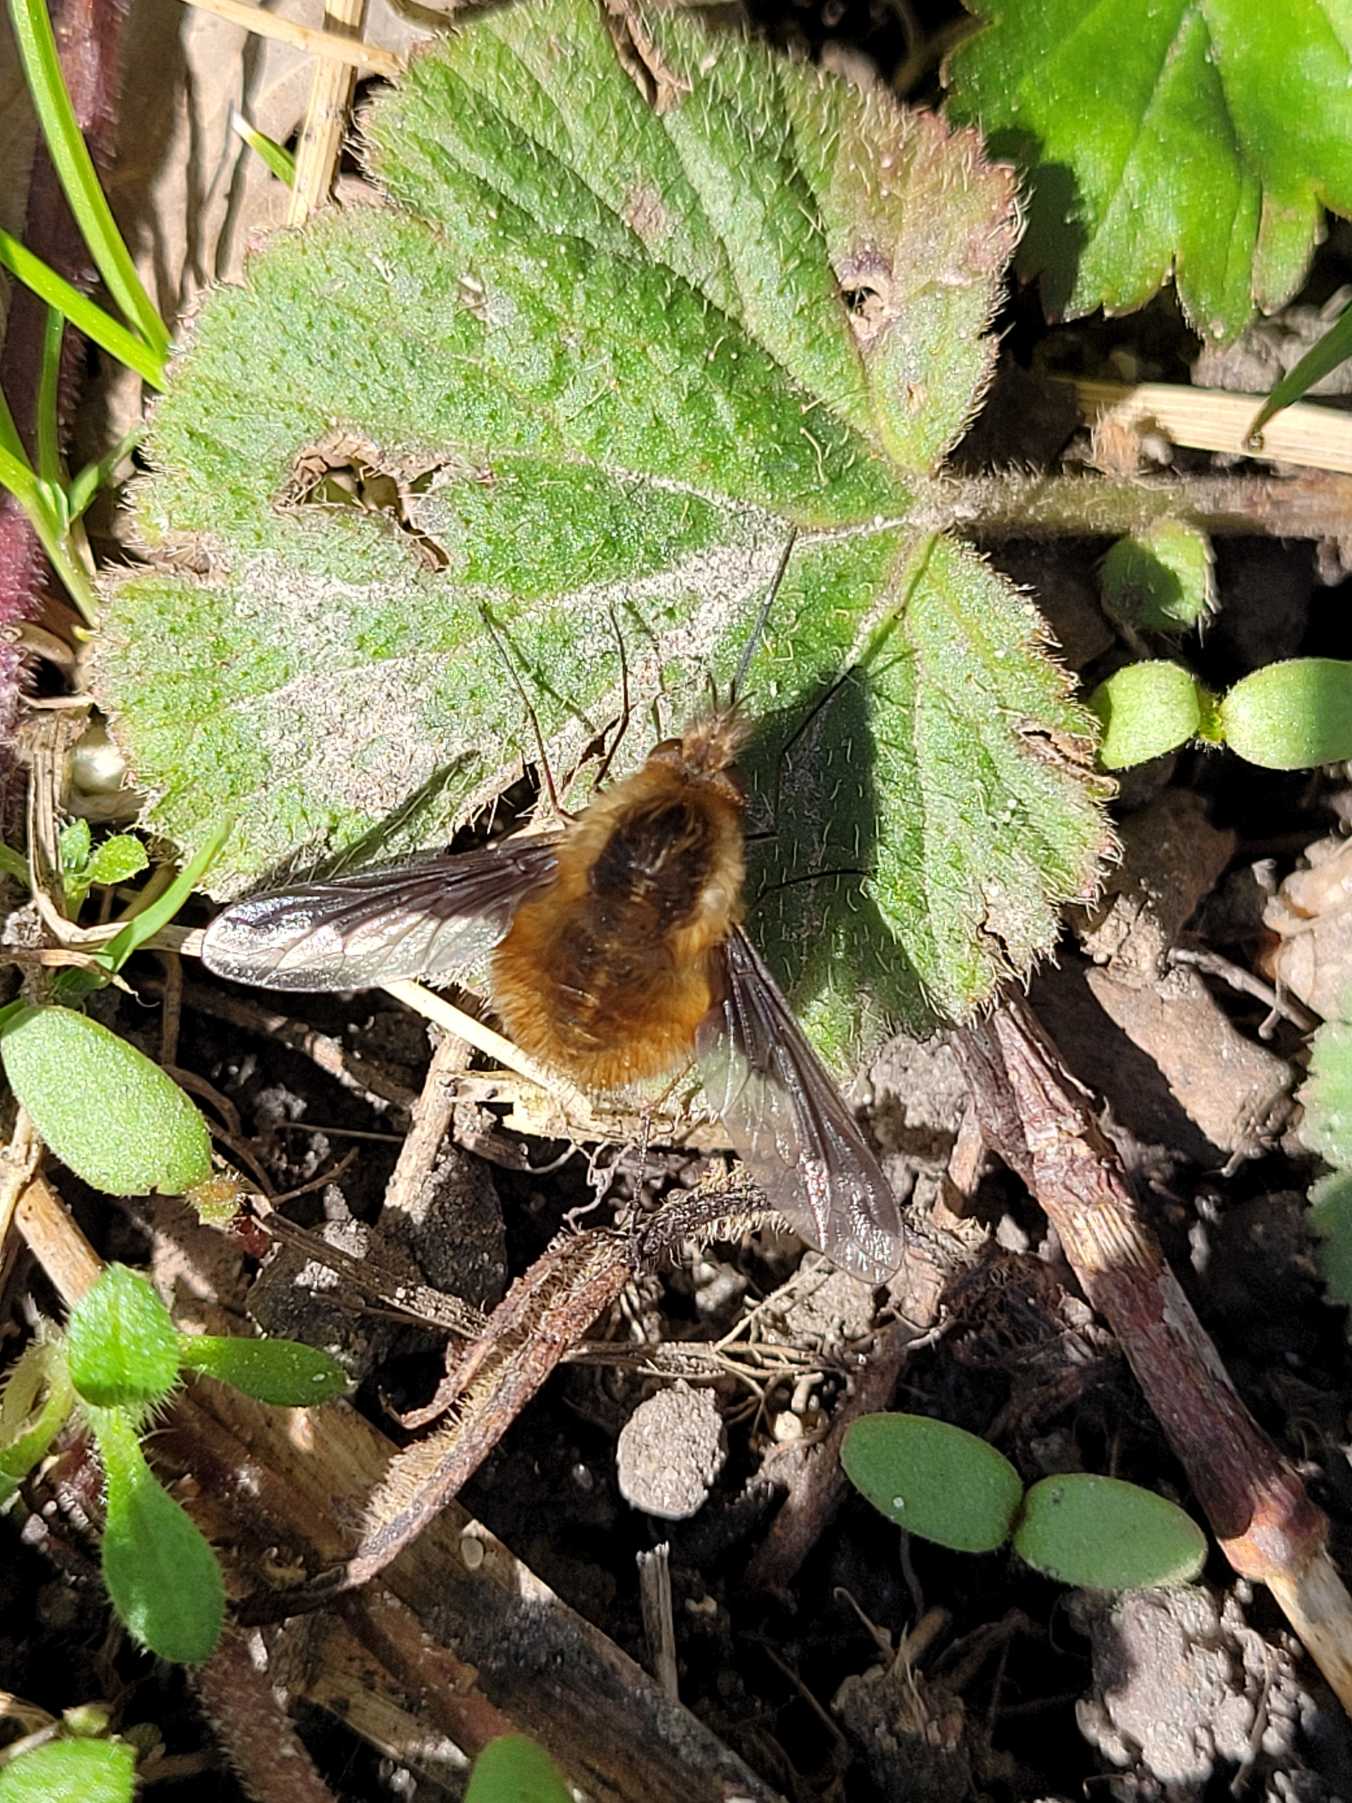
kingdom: Animalia
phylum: Arthropoda
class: Insecta
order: Diptera
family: Bombyliidae
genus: Bombylius
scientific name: Bombylius major
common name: Stor humleflue
